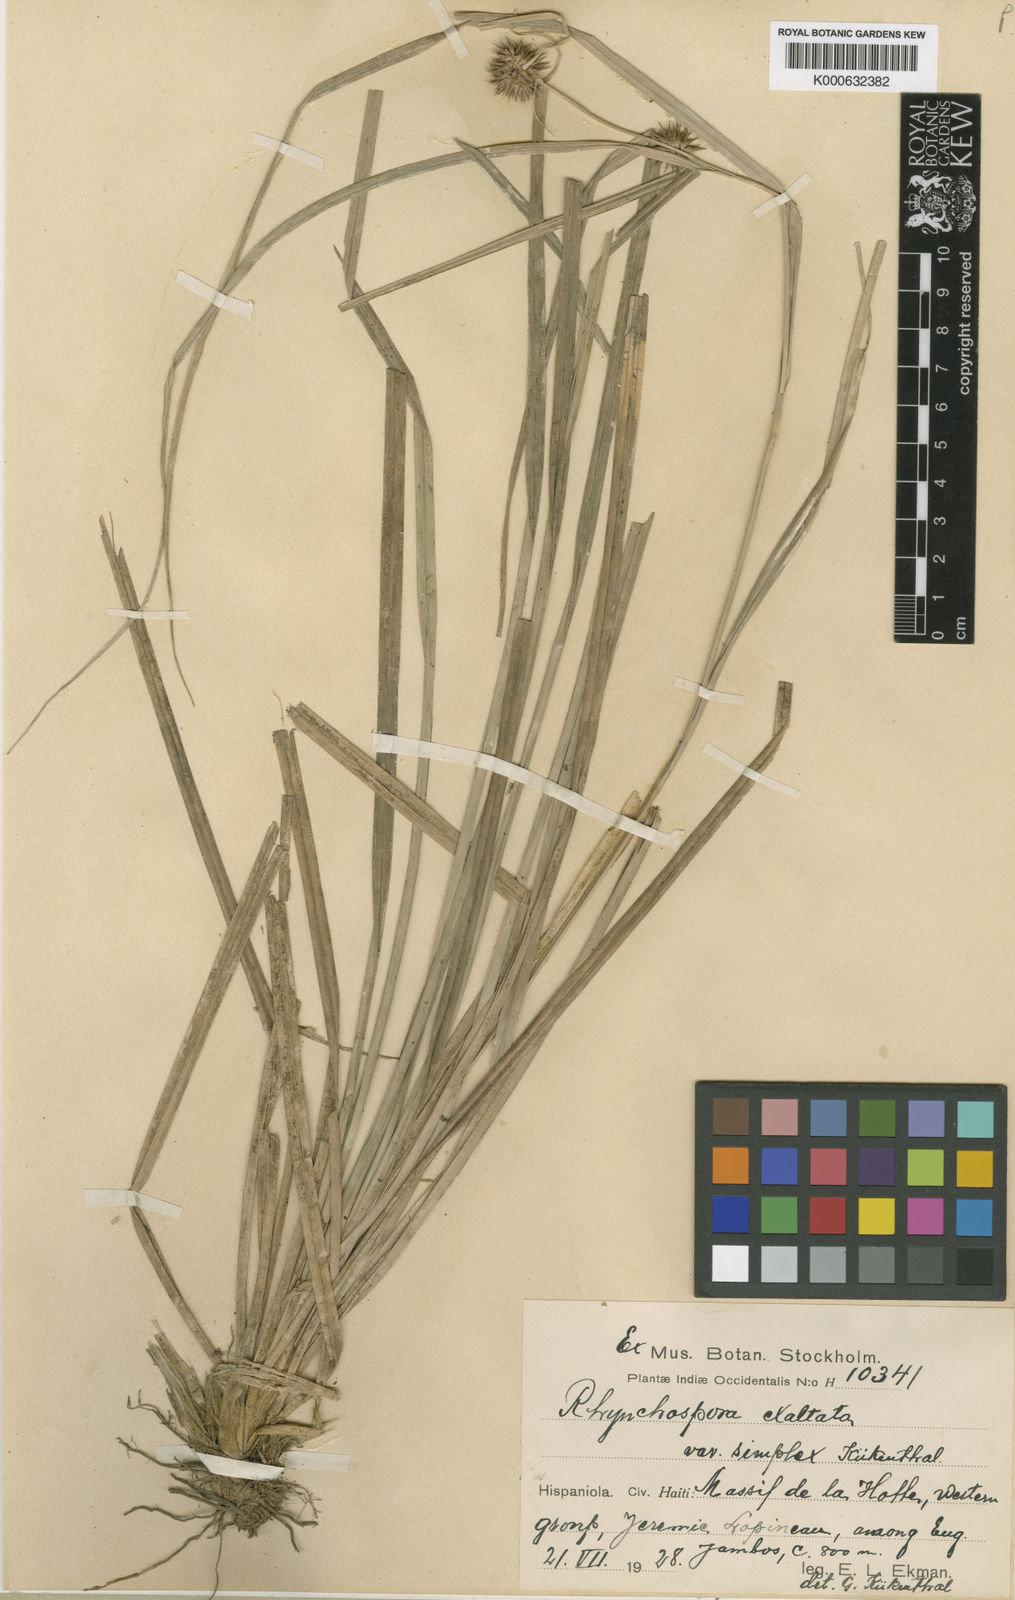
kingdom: Plantae
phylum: Tracheophyta
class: Liliopsida
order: Poales
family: Cyperaceae
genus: Rhynchospora
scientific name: Rhynchospora exaltata
